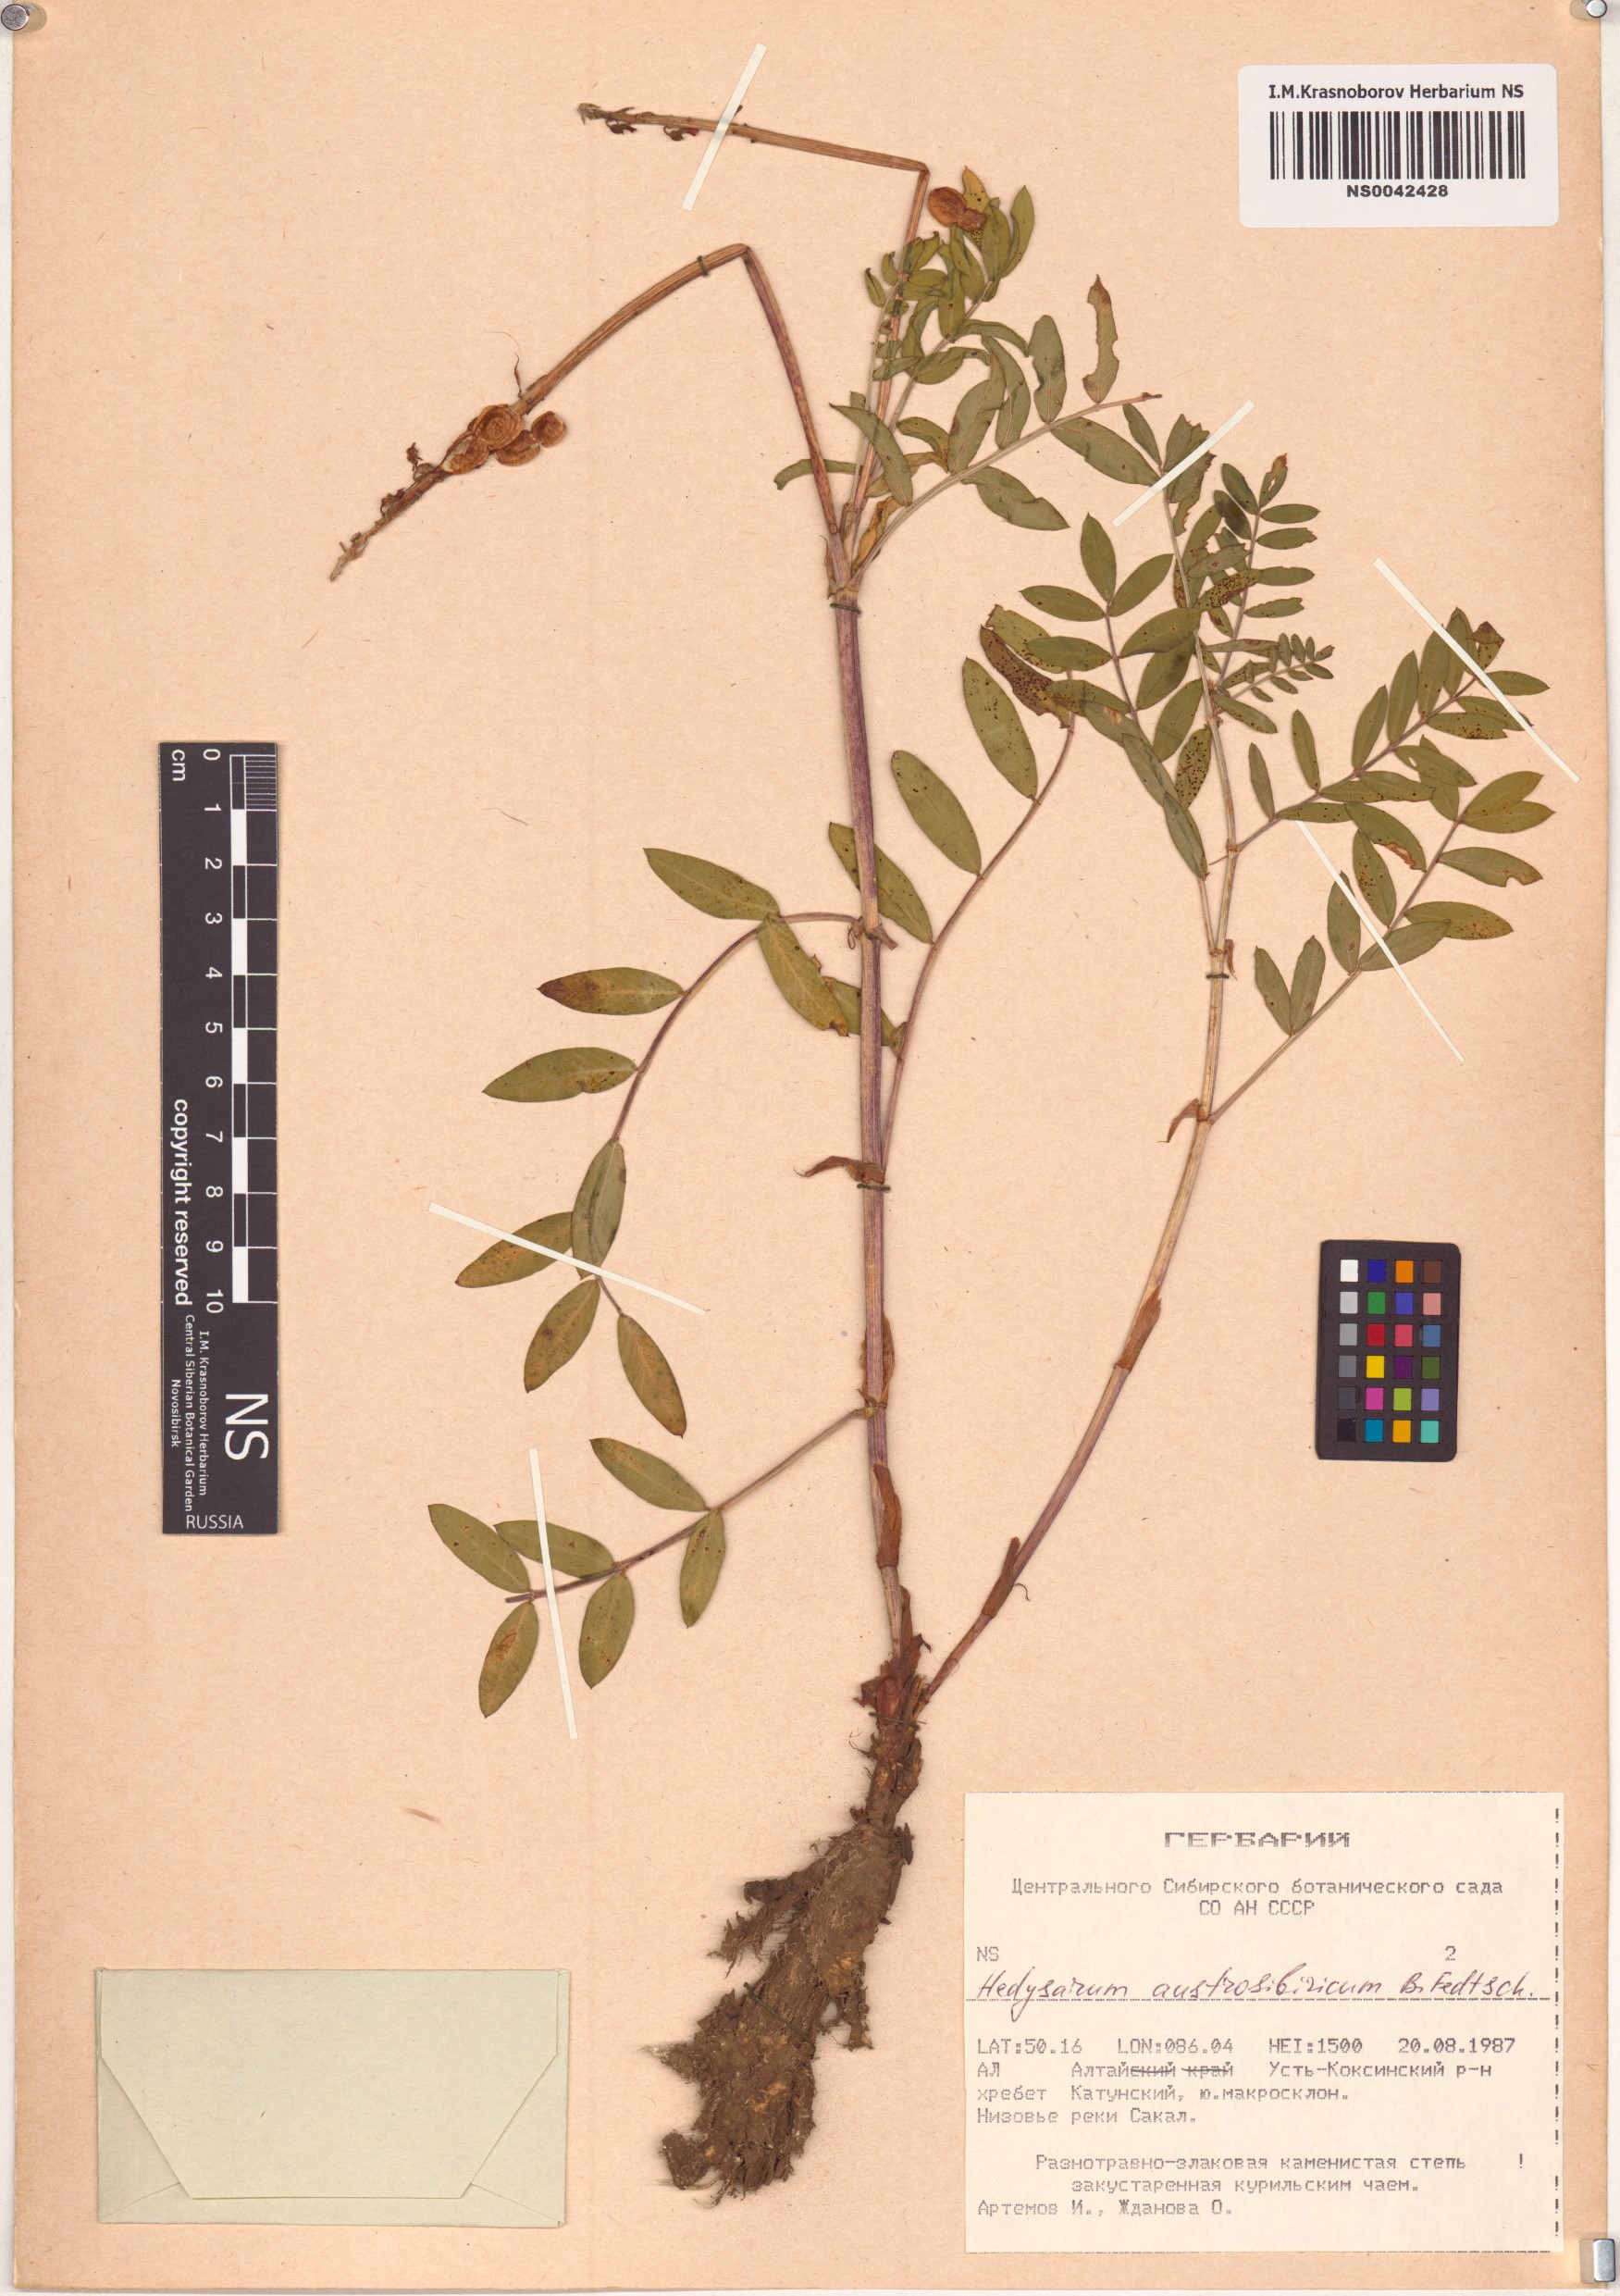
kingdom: Plantae
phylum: Tracheophyta
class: Magnoliopsida
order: Fabales
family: Fabaceae
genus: Hedysarum
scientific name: Hedysarum neglectum
